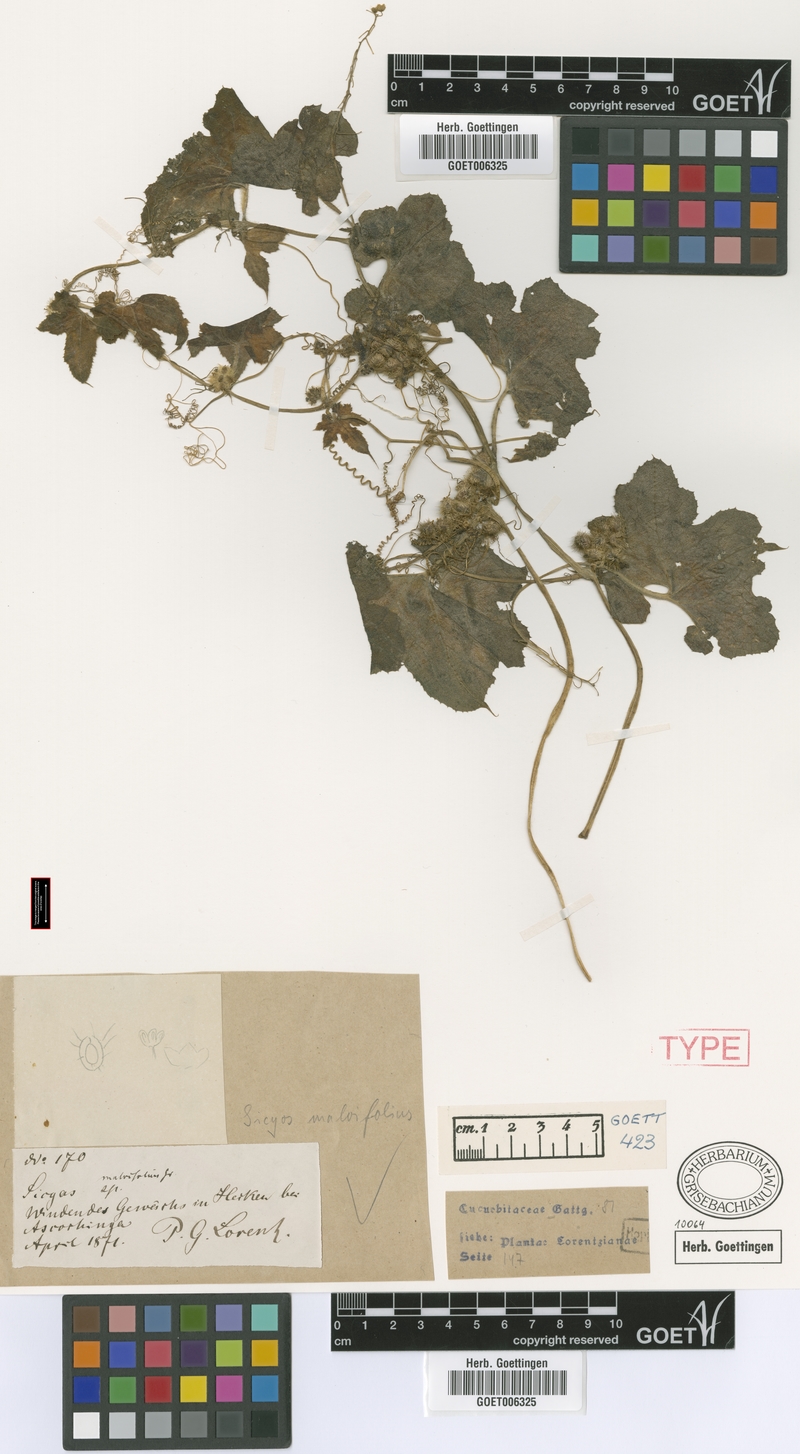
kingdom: Plantae
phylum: Tracheophyta
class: Magnoliopsida
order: Cucurbitales
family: Cucurbitaceae
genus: Sicyos
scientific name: Sicyos malvifolius
